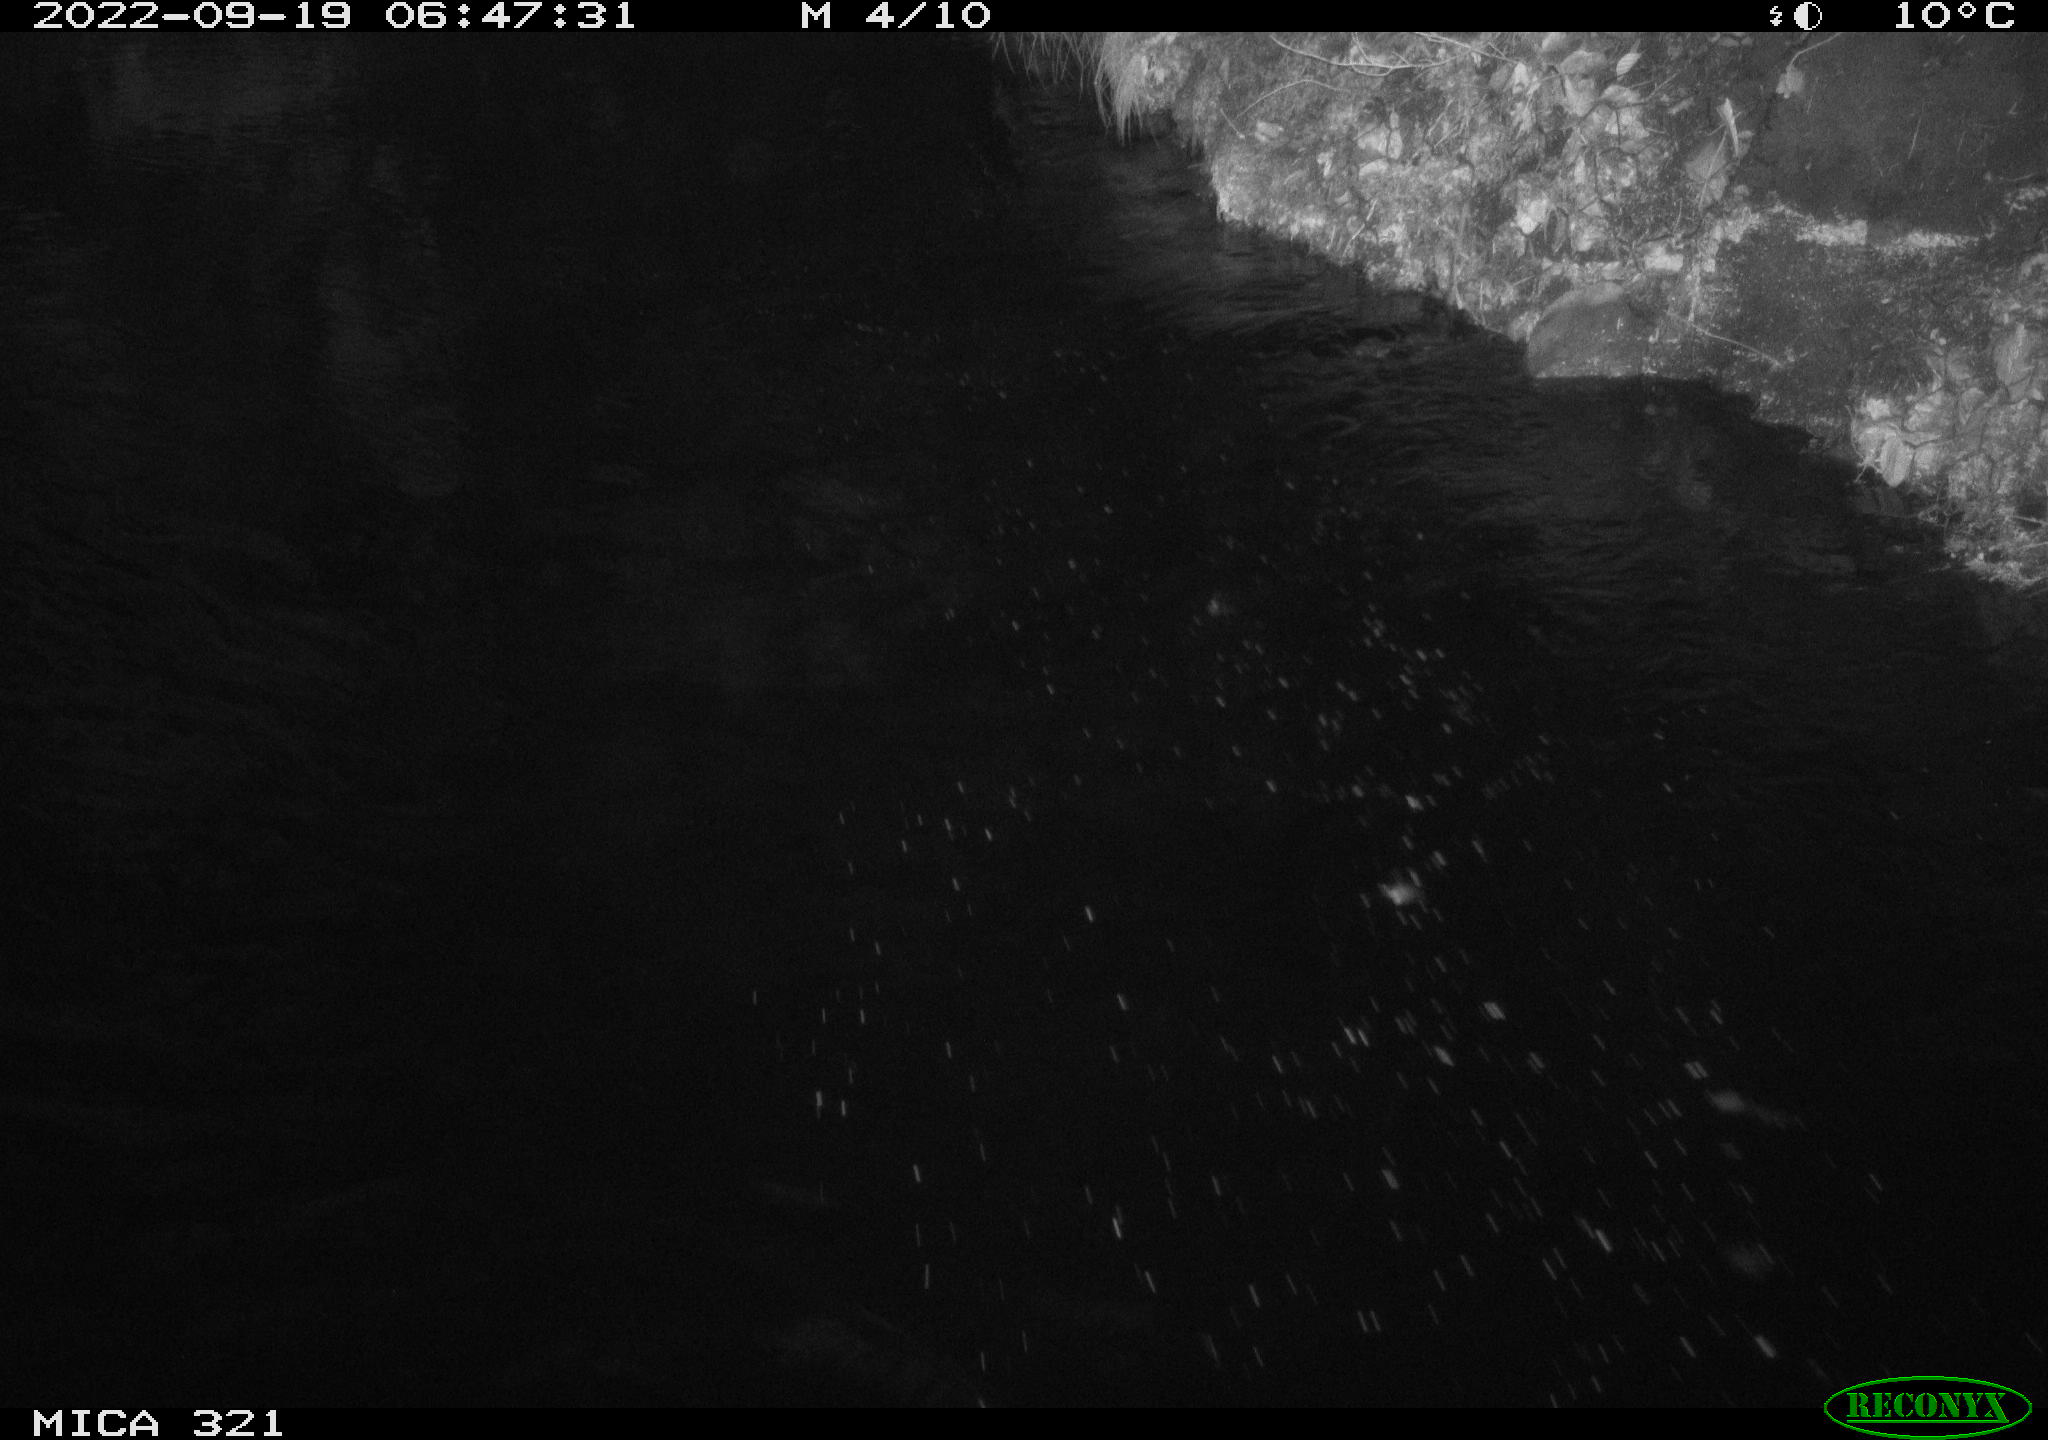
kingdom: Animalia
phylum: Chordata
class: Aves
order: Anseriformes
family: Anatidae
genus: Anas
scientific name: Anas
